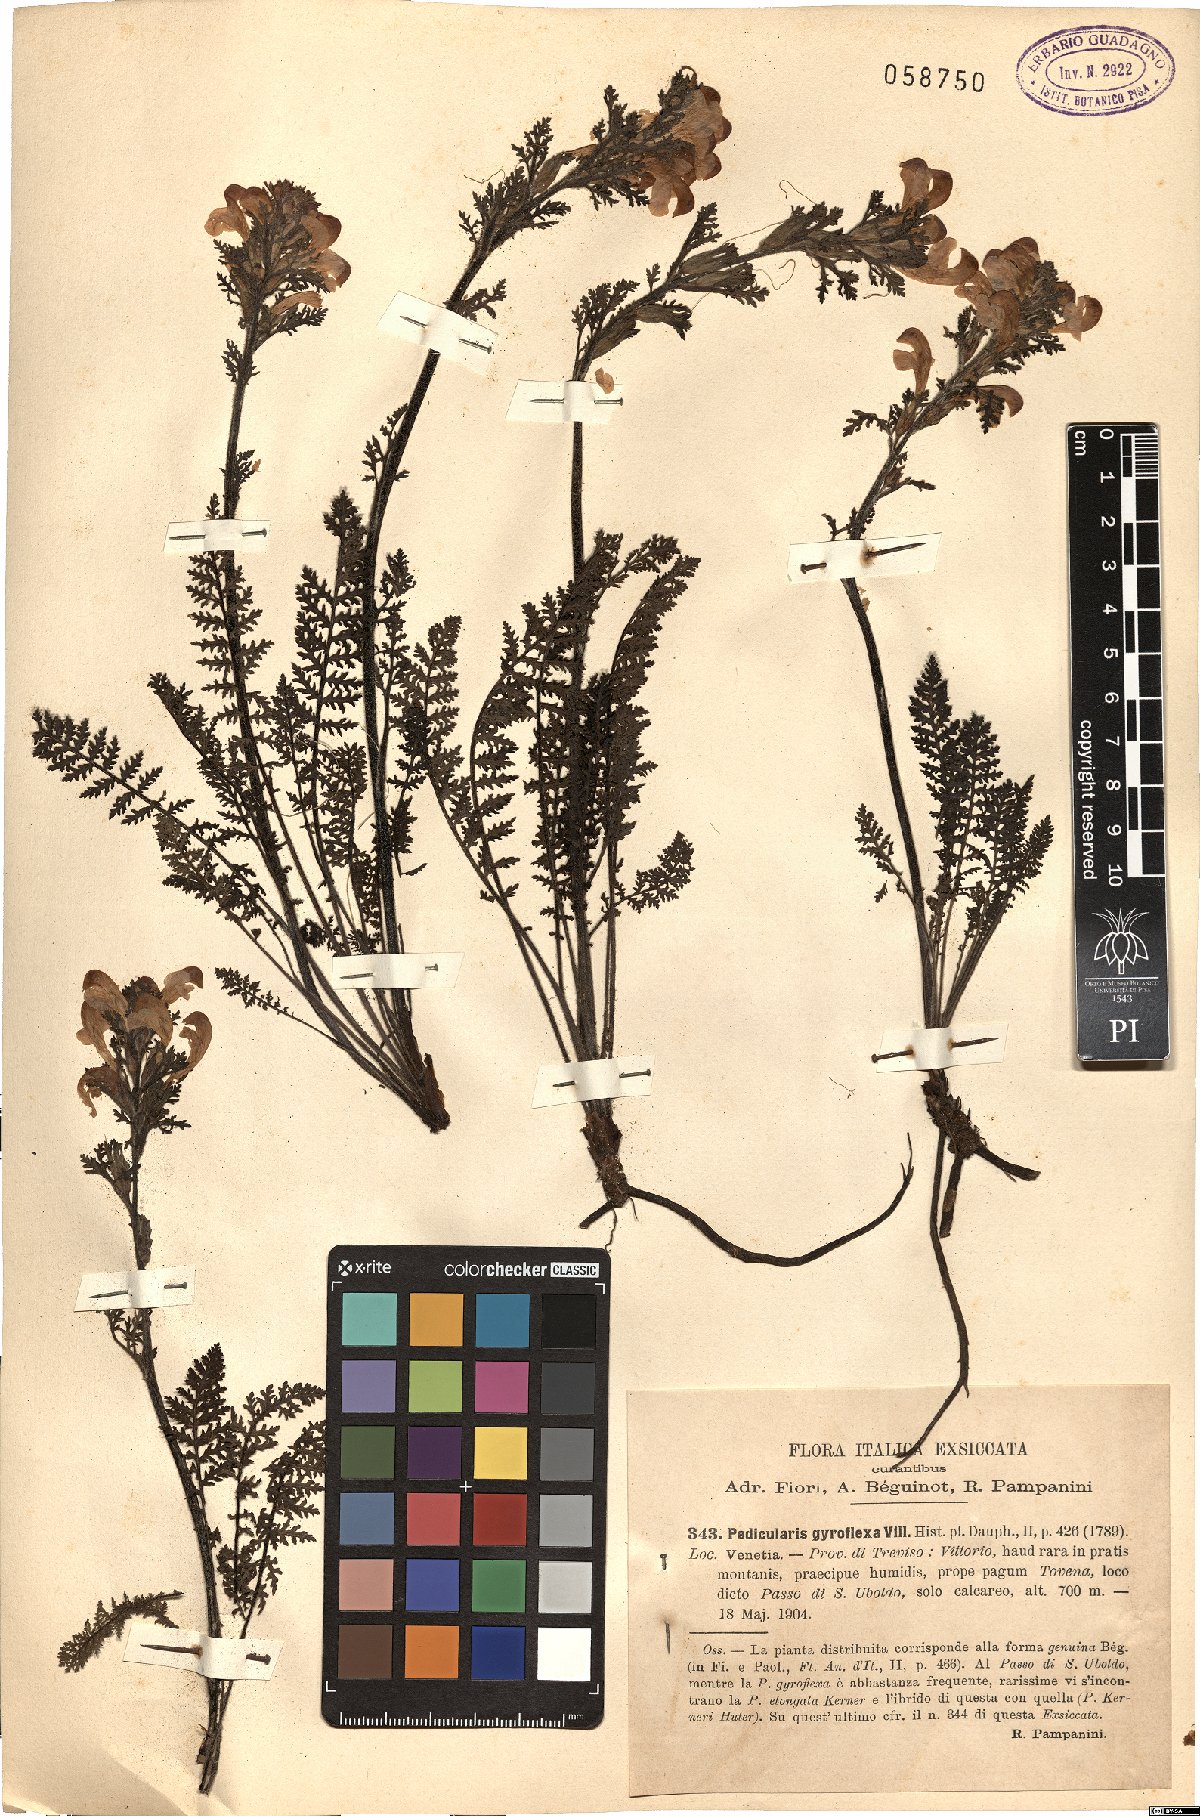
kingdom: Plantae
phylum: Tracheophyta
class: Magnoliopsida
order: Lamiales
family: Orobanchaceae
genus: Pedicularis
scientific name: Pedicularis gyroflexa
